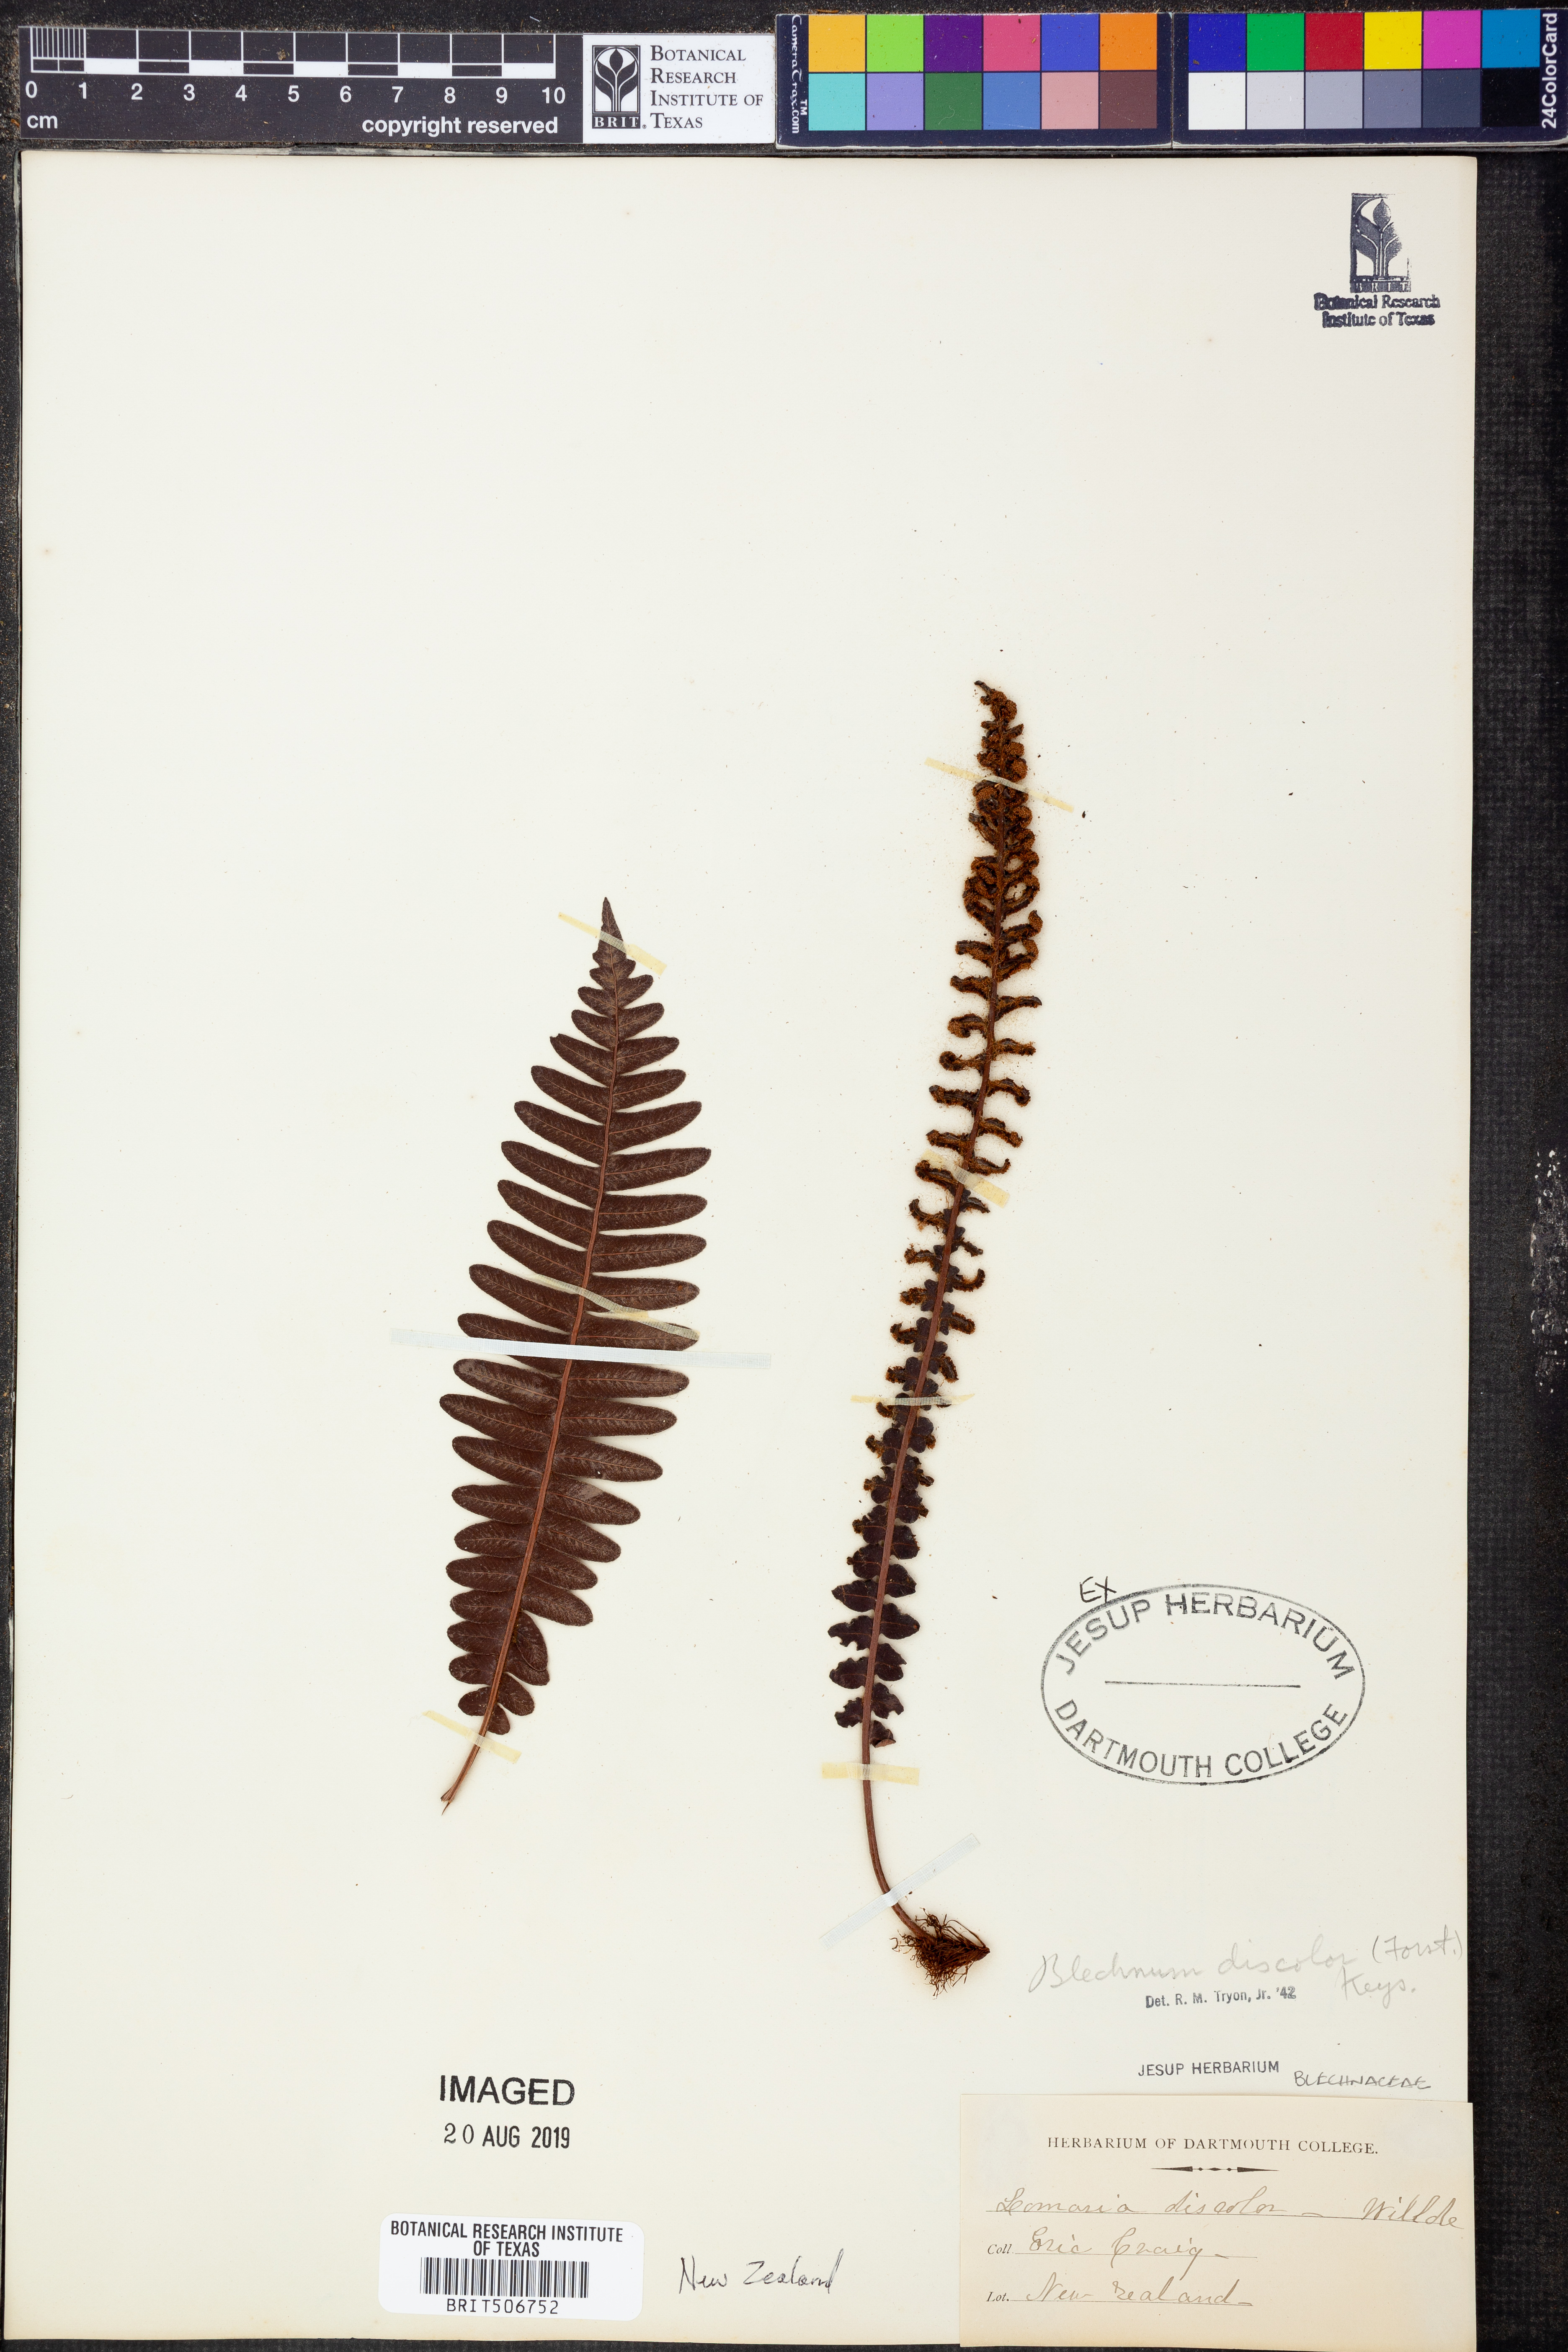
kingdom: Plantae
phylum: Tracheophyta
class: Polypodiopsida
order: Polypodiales
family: Blechnaceae
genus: Lomaria
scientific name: Lomaria discolor
